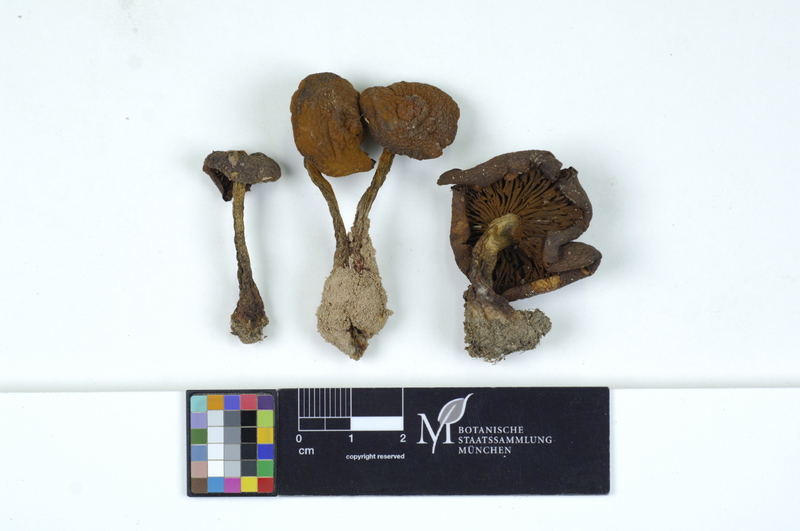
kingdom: Fungi
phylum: Basidiomycota
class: Agaricomycetes
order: Agaricales
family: Cortinariaceae
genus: Cortinarius
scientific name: Cortinarius purpureus
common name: Imperial webcap
